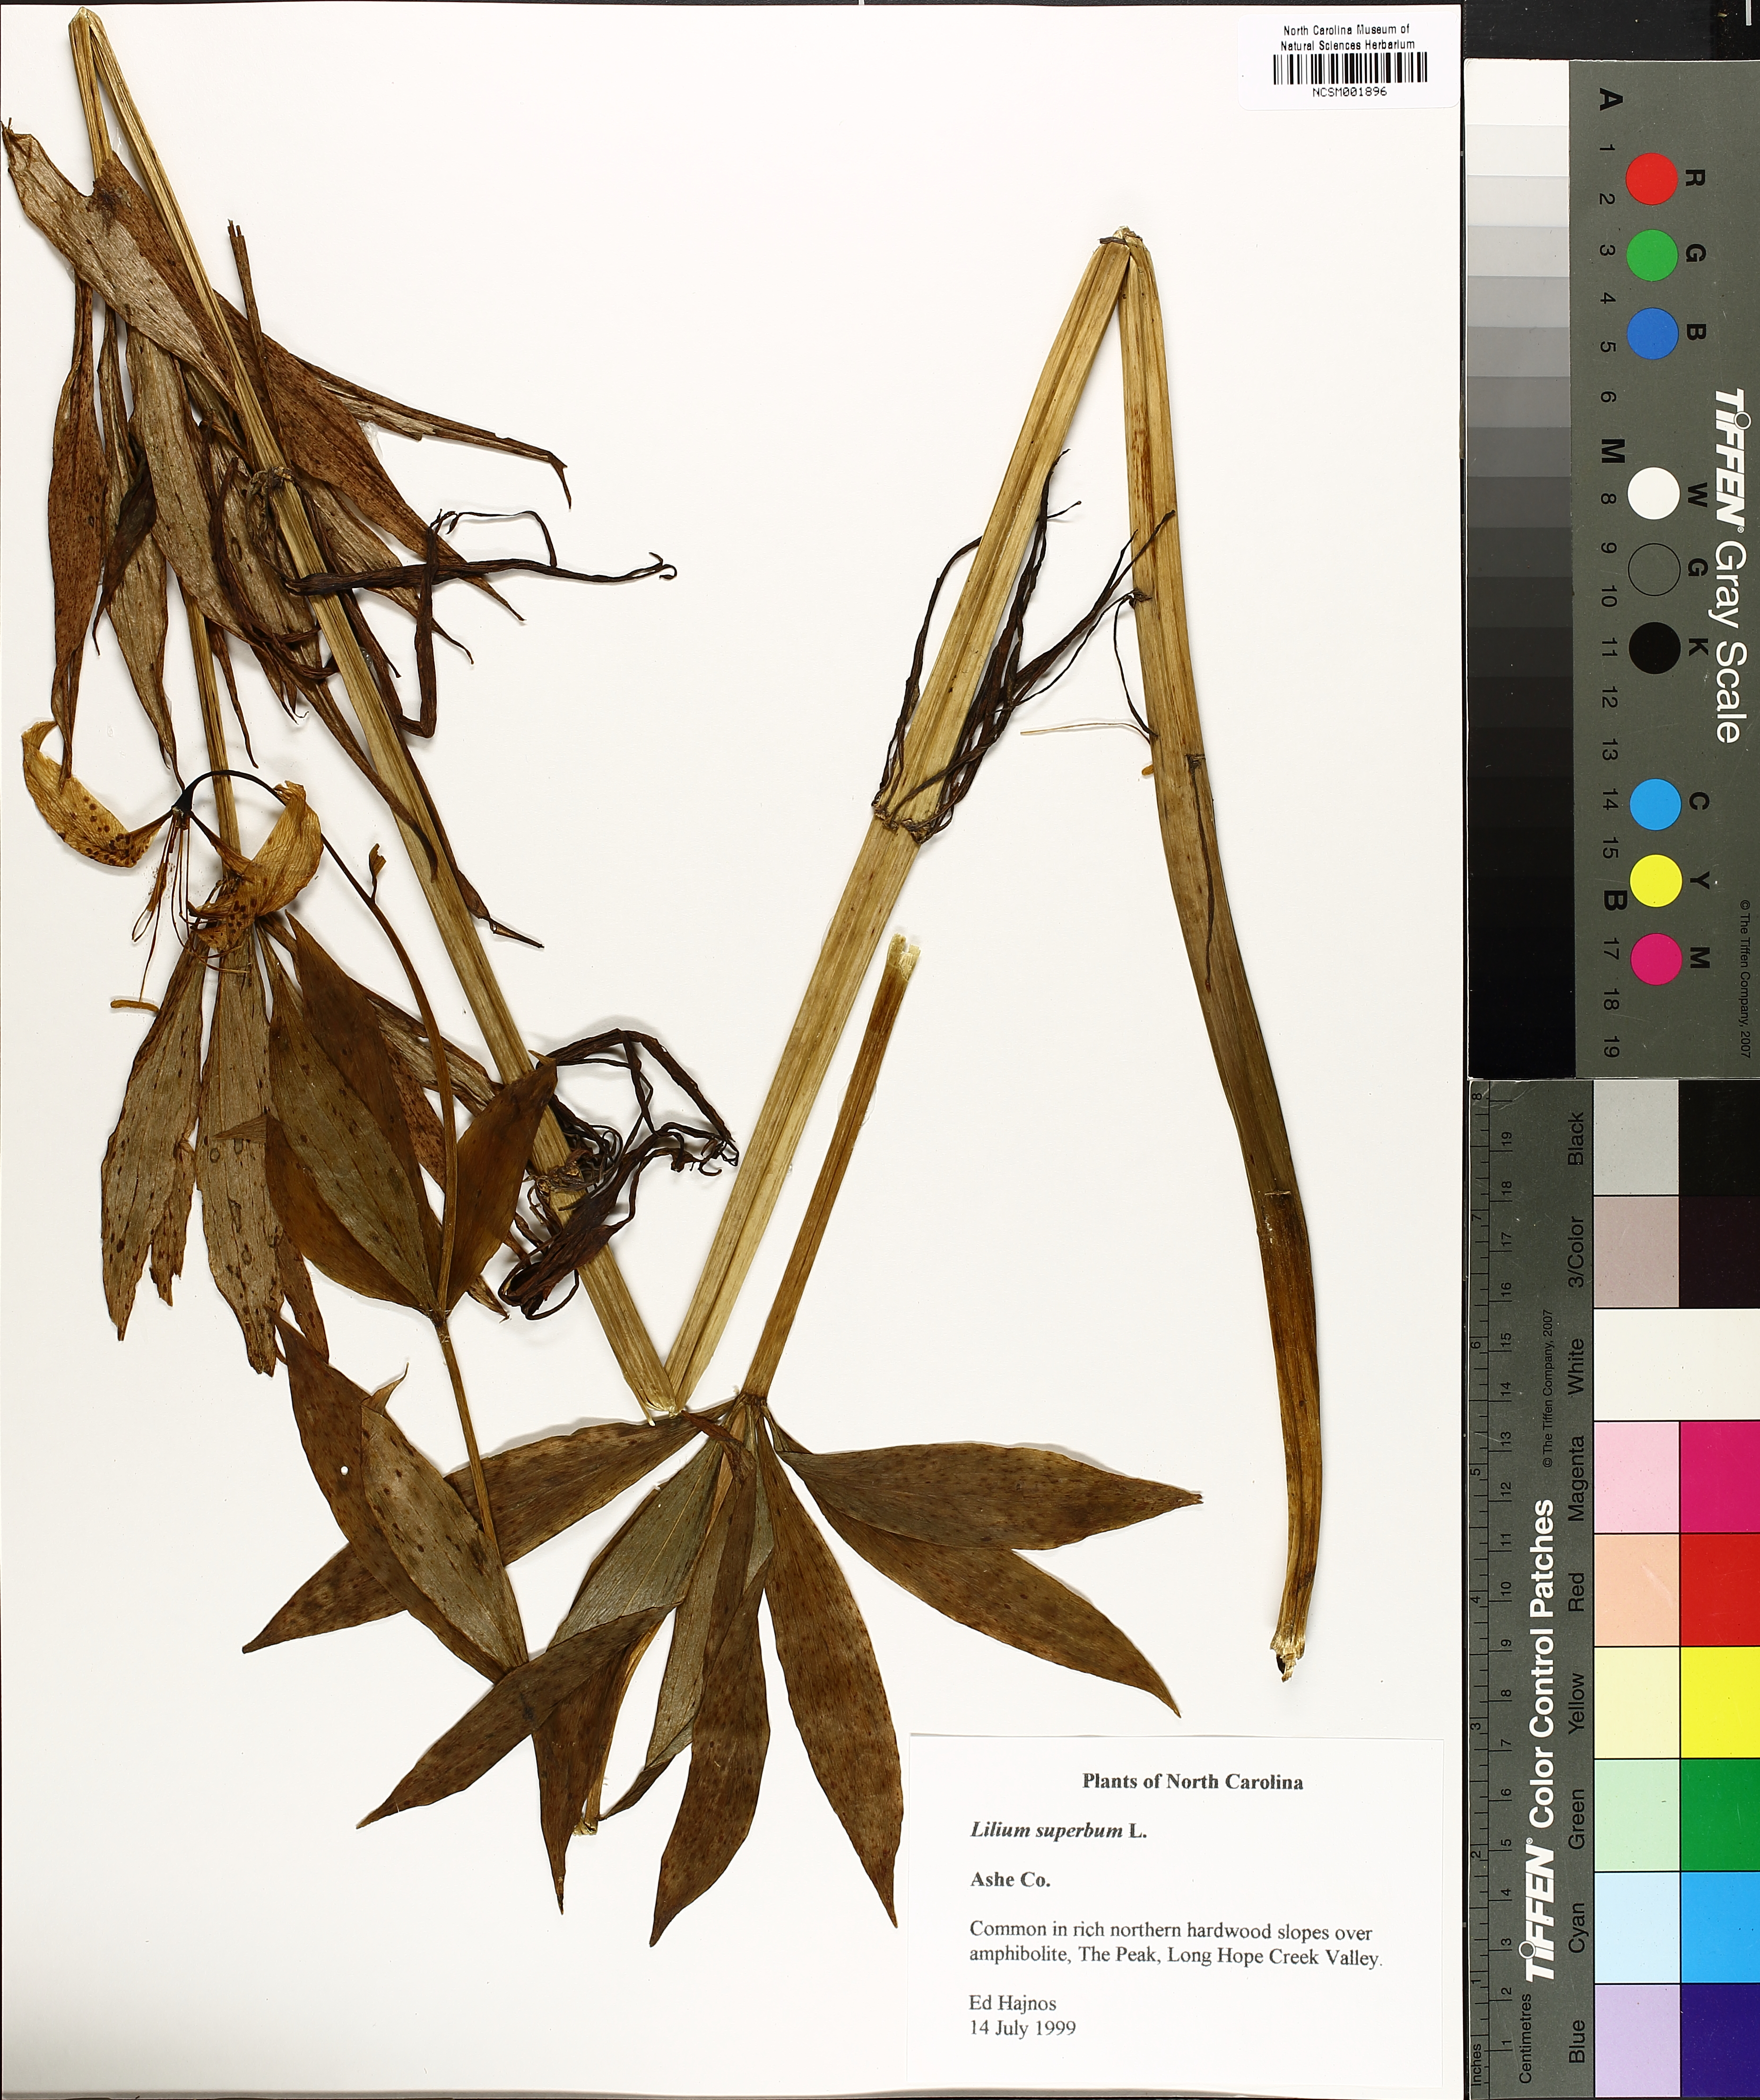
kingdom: Plantae
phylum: Tracheophyta
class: Liliopsida
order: Liliales
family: Liliaceae
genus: Lilium
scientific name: Lilium superbum
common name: American turk's-cap lily
